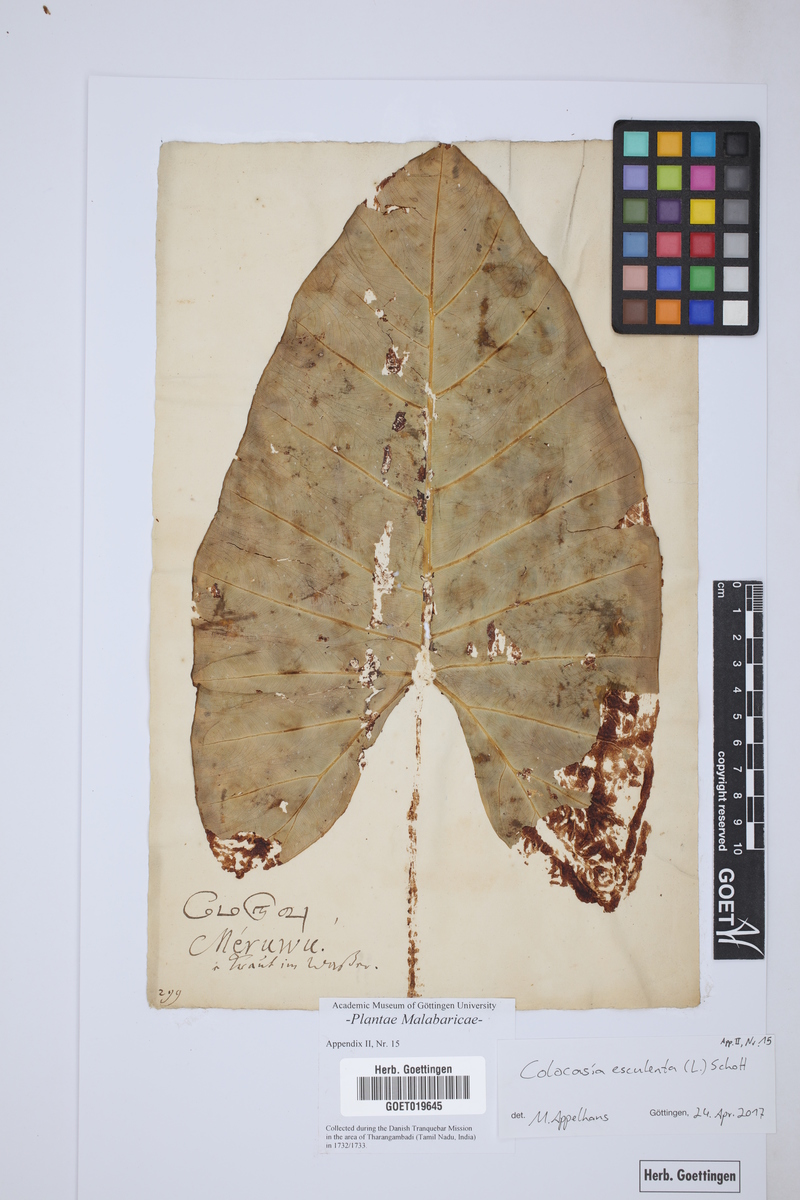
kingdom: Plantae
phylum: Tracheophyta
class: Liliopsida
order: Alismatales
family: Araceae
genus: Colocasia
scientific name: Colocasia esculenta
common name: Taro
